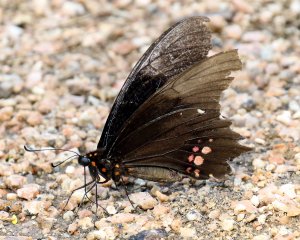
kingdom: Animalia
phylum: Arthropoda
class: Insecta
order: Lepidoptera
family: Papilionidae
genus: Papilio
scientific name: Papilio anchisiades
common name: Ruby-spotted Swallowtail
